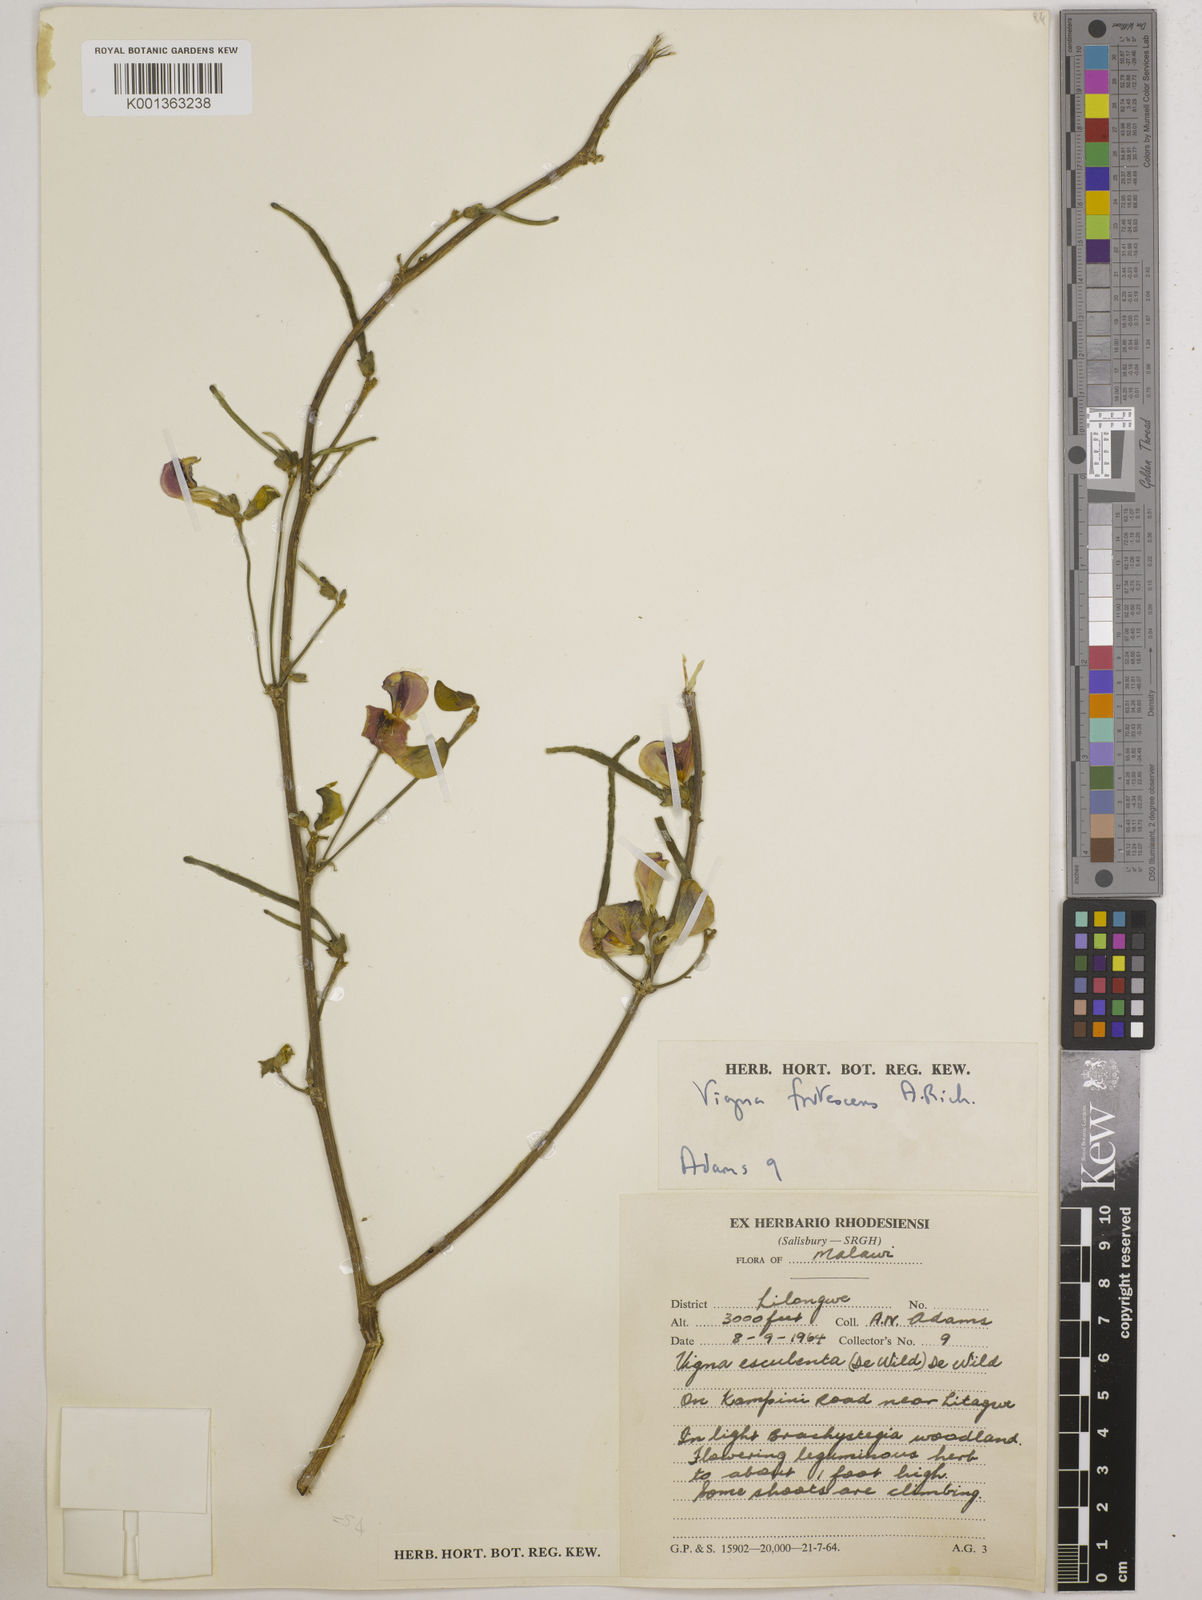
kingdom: Plantae
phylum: Tracheophyta
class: Magnoliopsida
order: Fabales
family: Fabaceae
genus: Vigna
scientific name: Vigna
